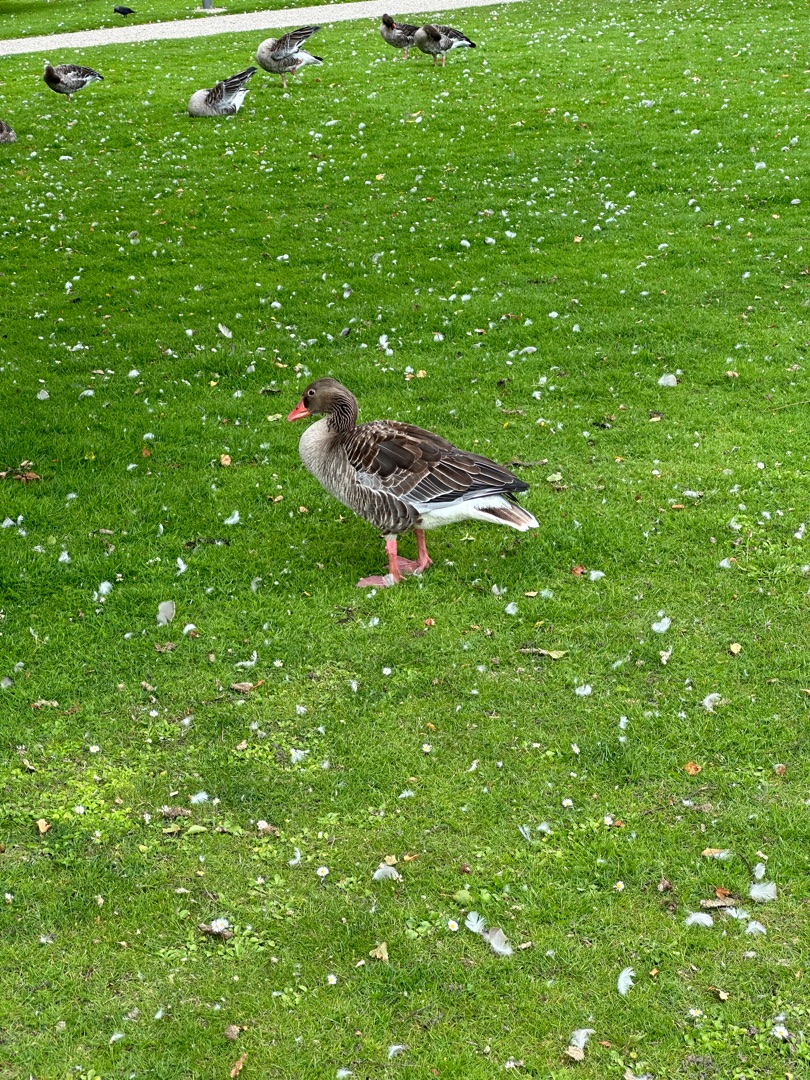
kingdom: Animalia
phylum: Chordata
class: Aves
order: Anseriformes
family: Anatidae
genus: Anser
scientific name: Anser anser
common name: Grågås
